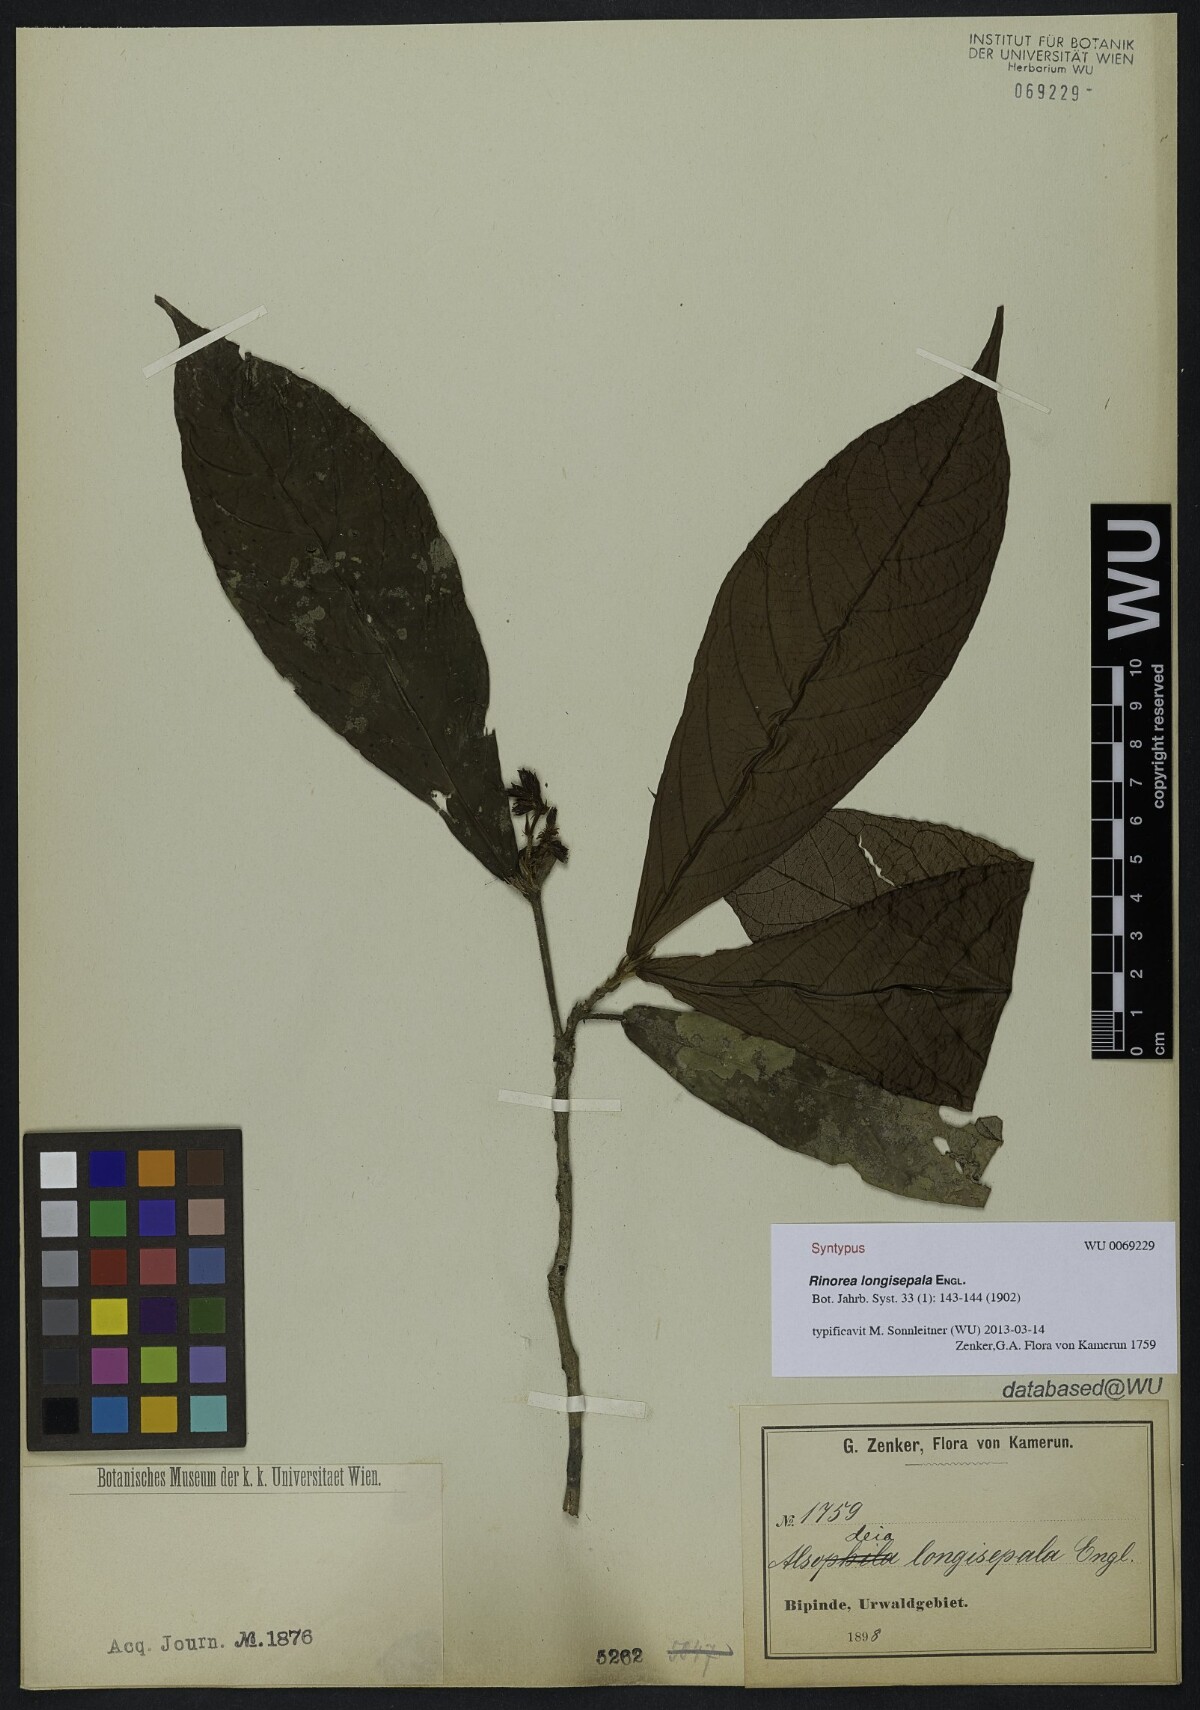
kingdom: Plantae
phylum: Tracheophyta
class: Magnoliopsida
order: Malpighiales
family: Violaceae
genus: Rinorea
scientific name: Rinorea longisepala
